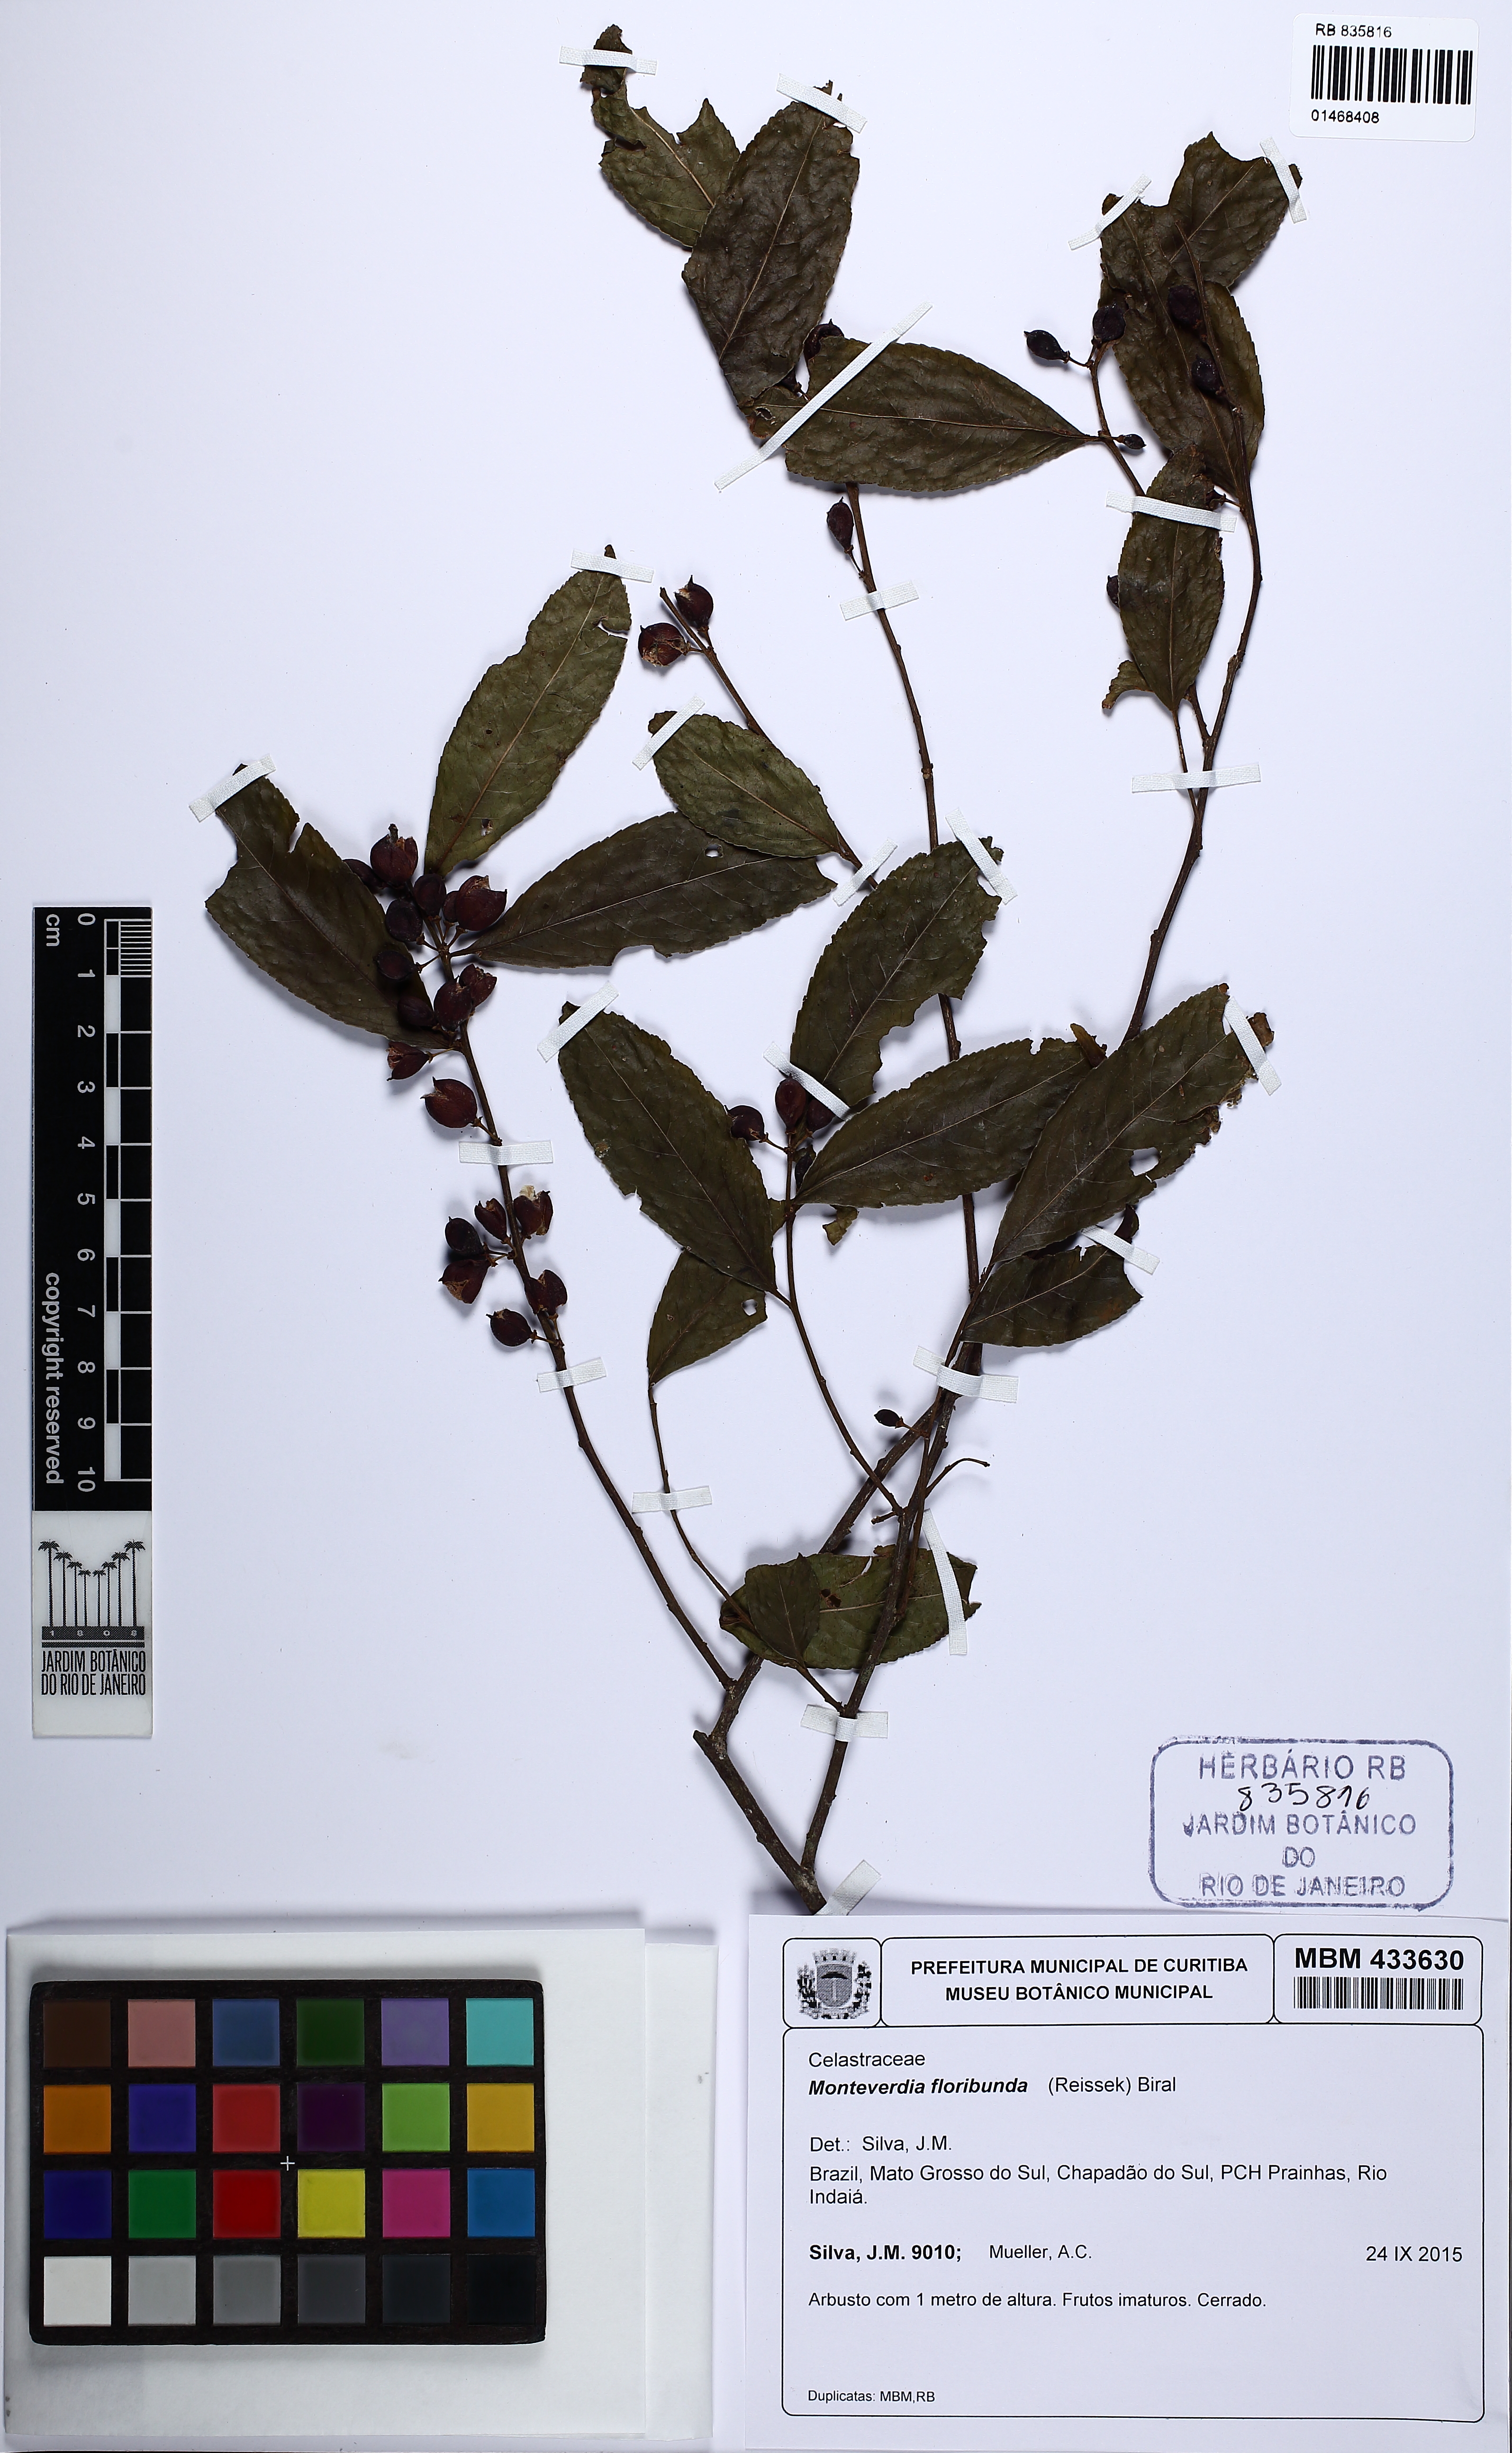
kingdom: Plantae
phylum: Tracheophyta
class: Magnoliopsida
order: Celastrales
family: Celastraceae
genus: Monteverdia
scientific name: Monteverdia floribunda
